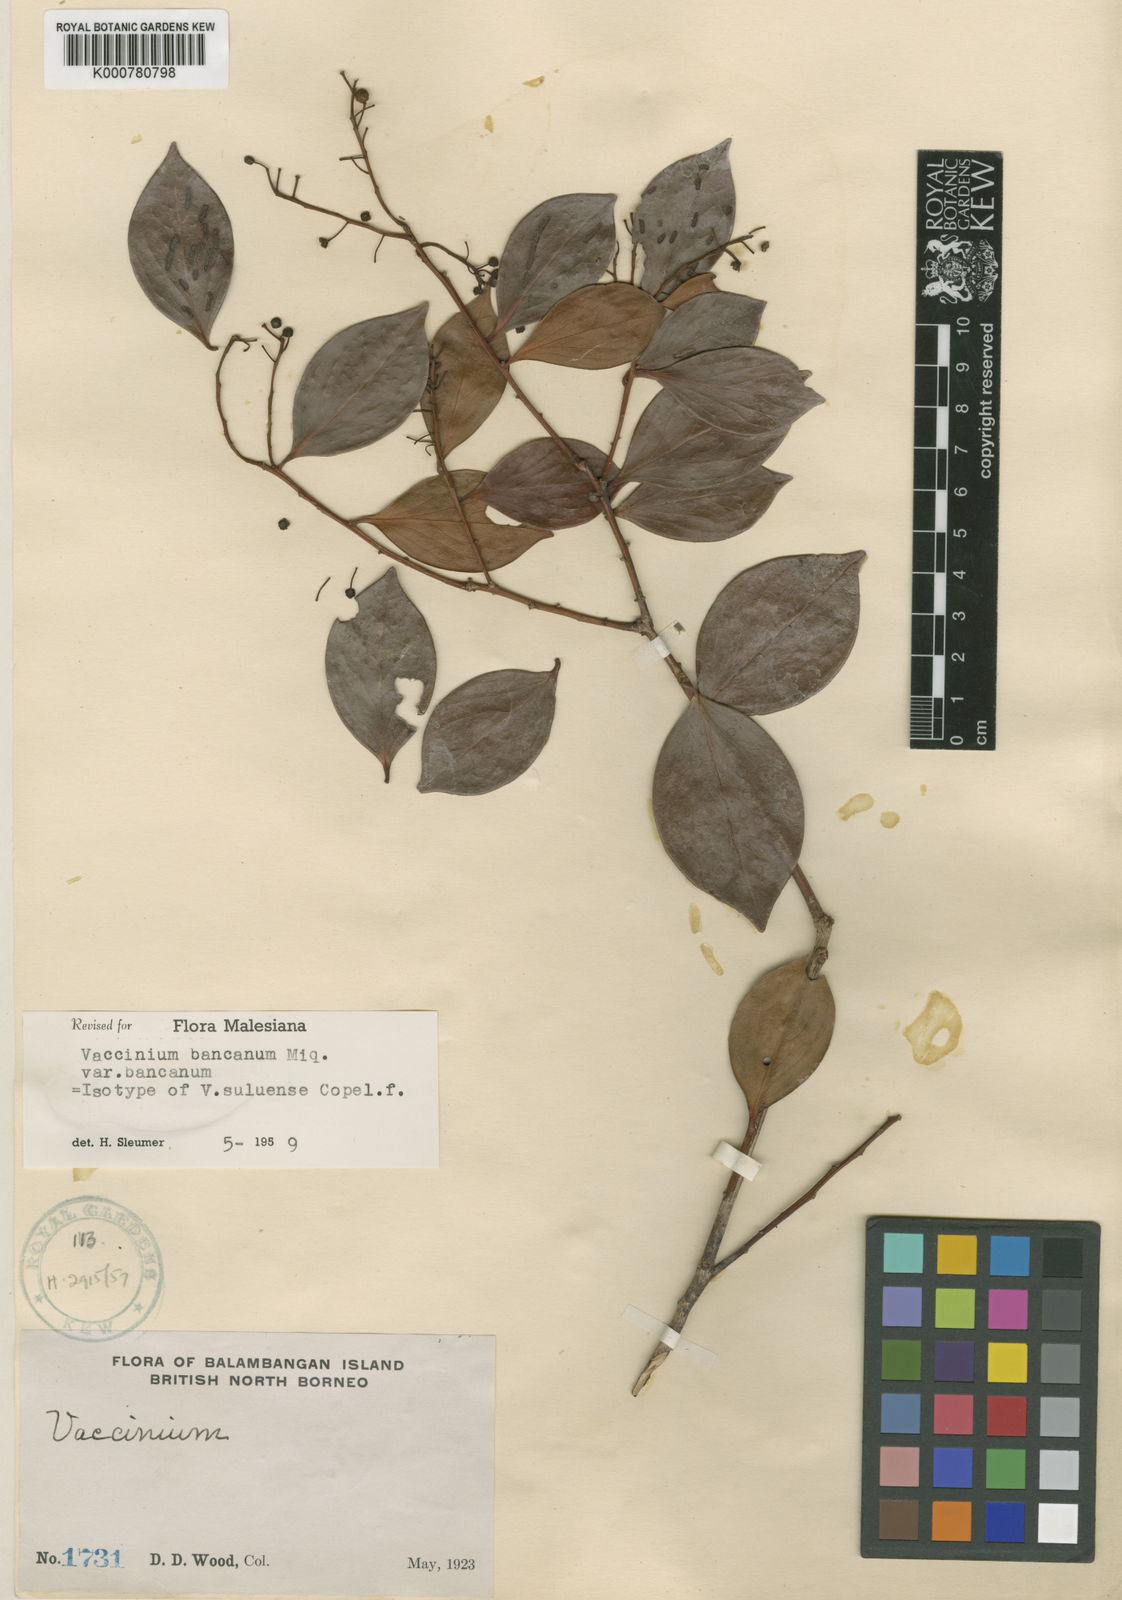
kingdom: Plantae
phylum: Tracheophyta
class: Magnoliopsida
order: Ericales
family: Ericaceae
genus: Vaccinium
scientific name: Vaccinium bancanum
